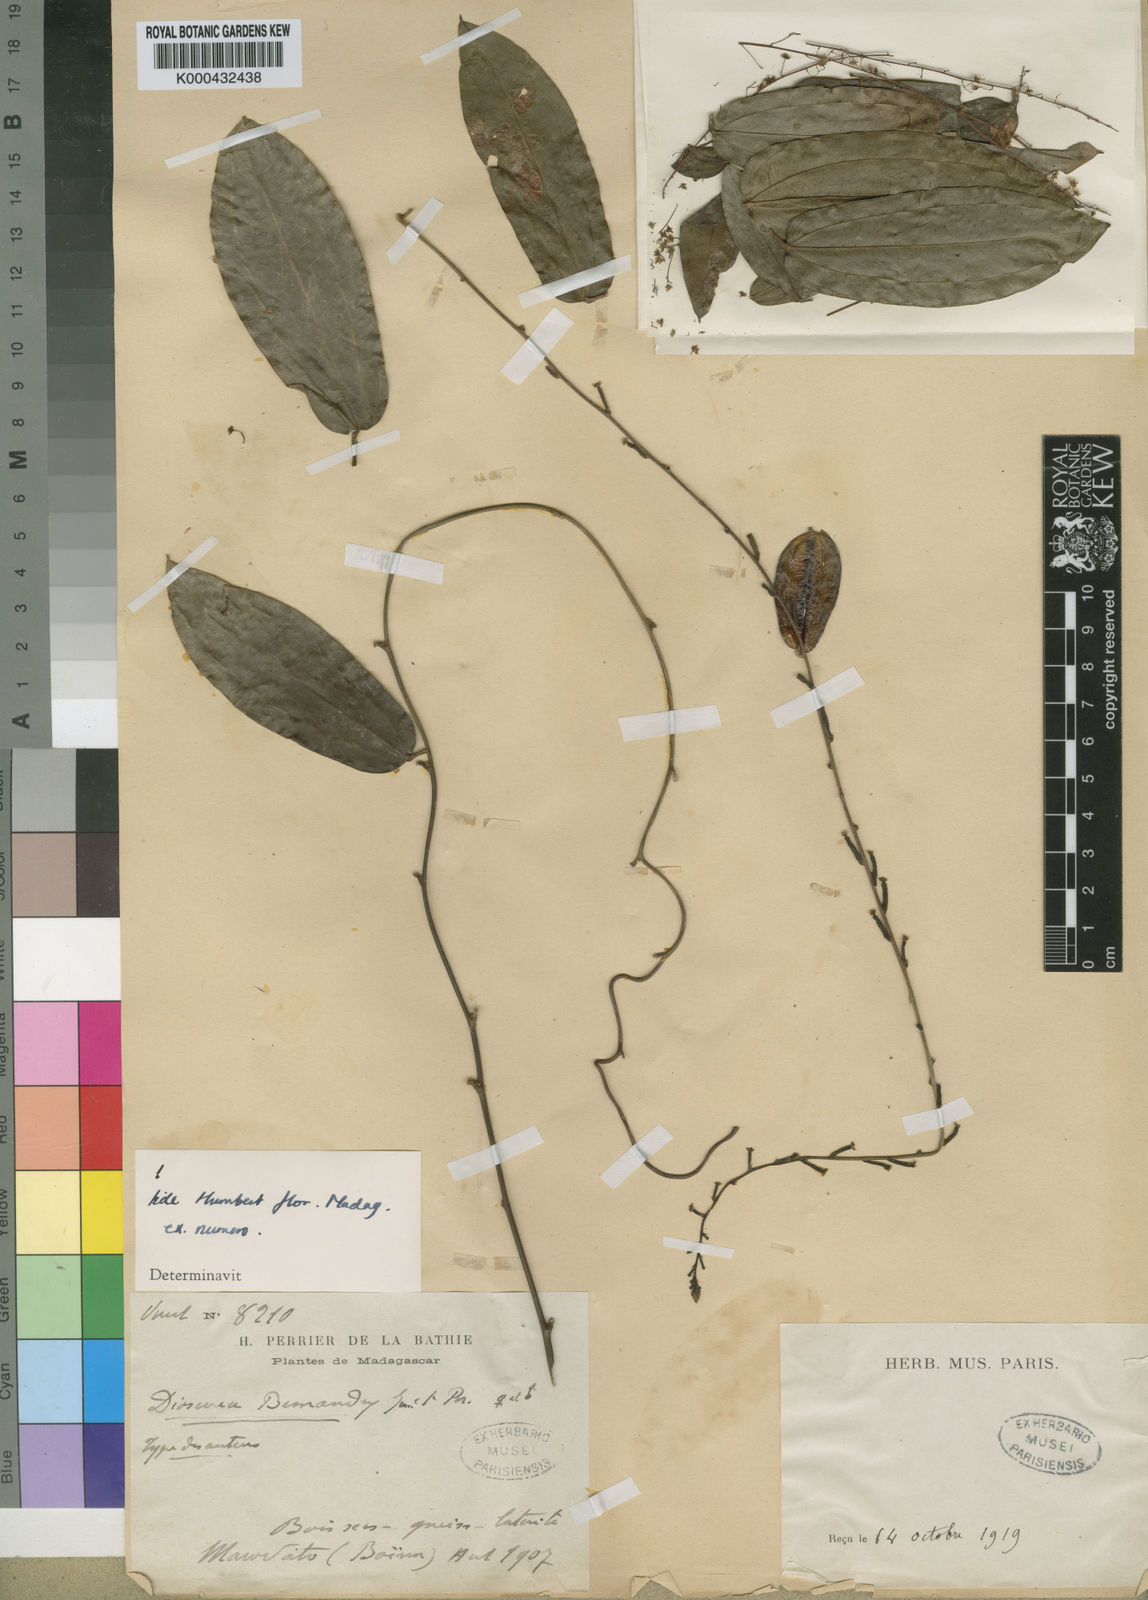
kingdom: Plantae
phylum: Tracheophyta
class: Liliopsida
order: Dioscoreales
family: Dioscoreaceae
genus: Dioscorea
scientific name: Dioscorea bemandry
